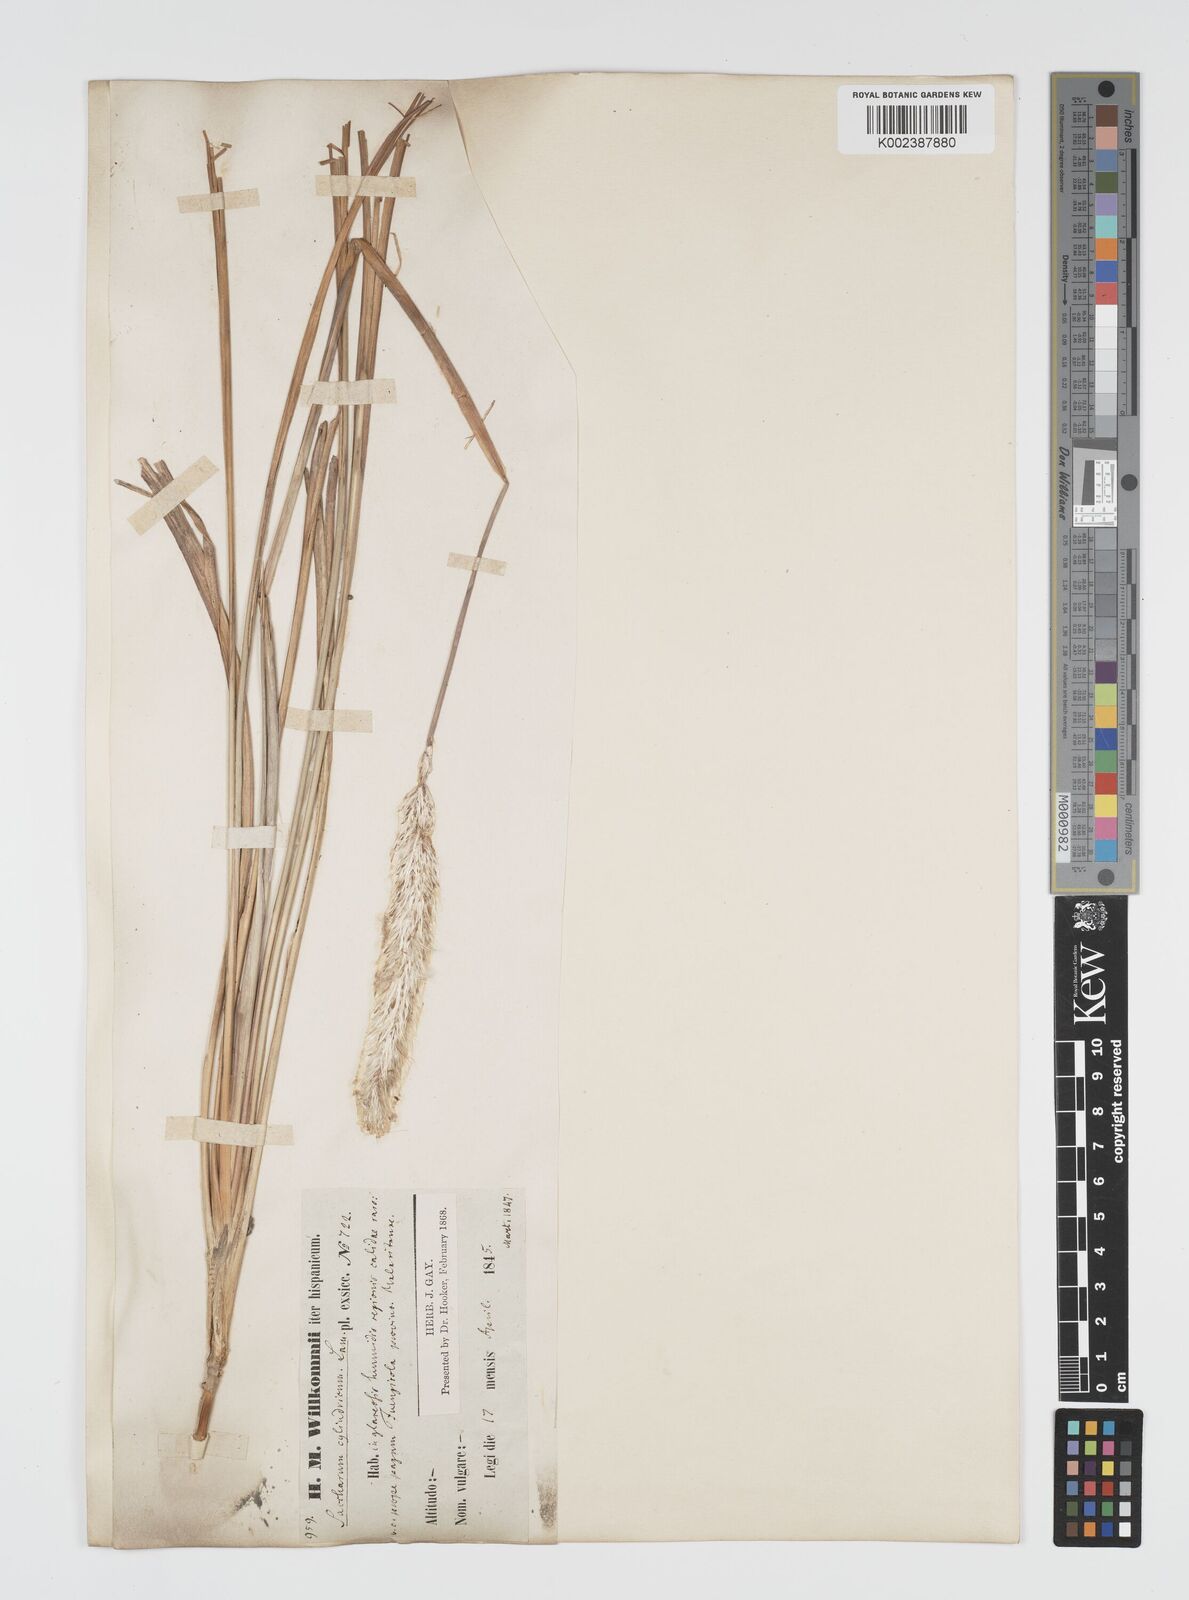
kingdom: Plantae
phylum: Tracheophyta
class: Liliopsida
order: Poales
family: Poaceae
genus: Imperata
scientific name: Imperata cylindrica
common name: Cogongrass
